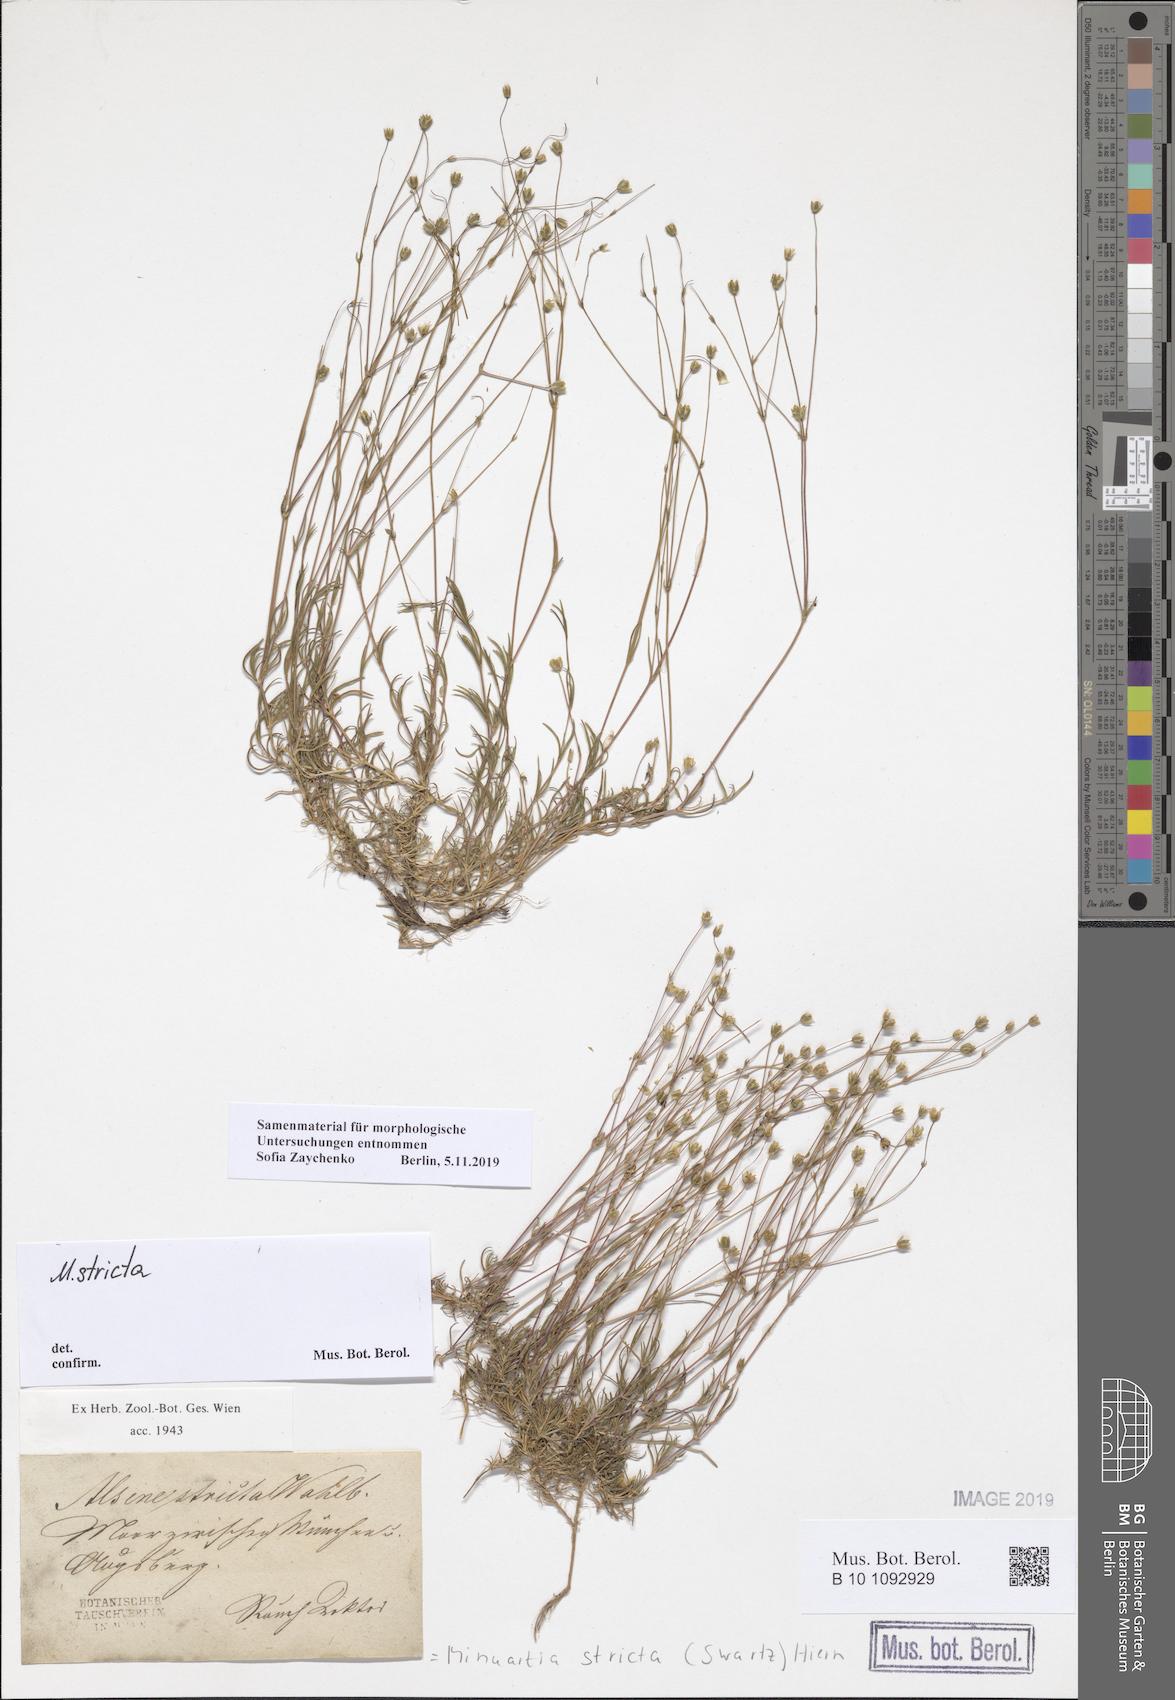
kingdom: Plantae
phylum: Tracheophyta
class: Magnoliopsida
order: Caryophyllales
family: Caryophyllaceae
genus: Sabulina
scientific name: Sabulina stricta
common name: Bog sandwort
